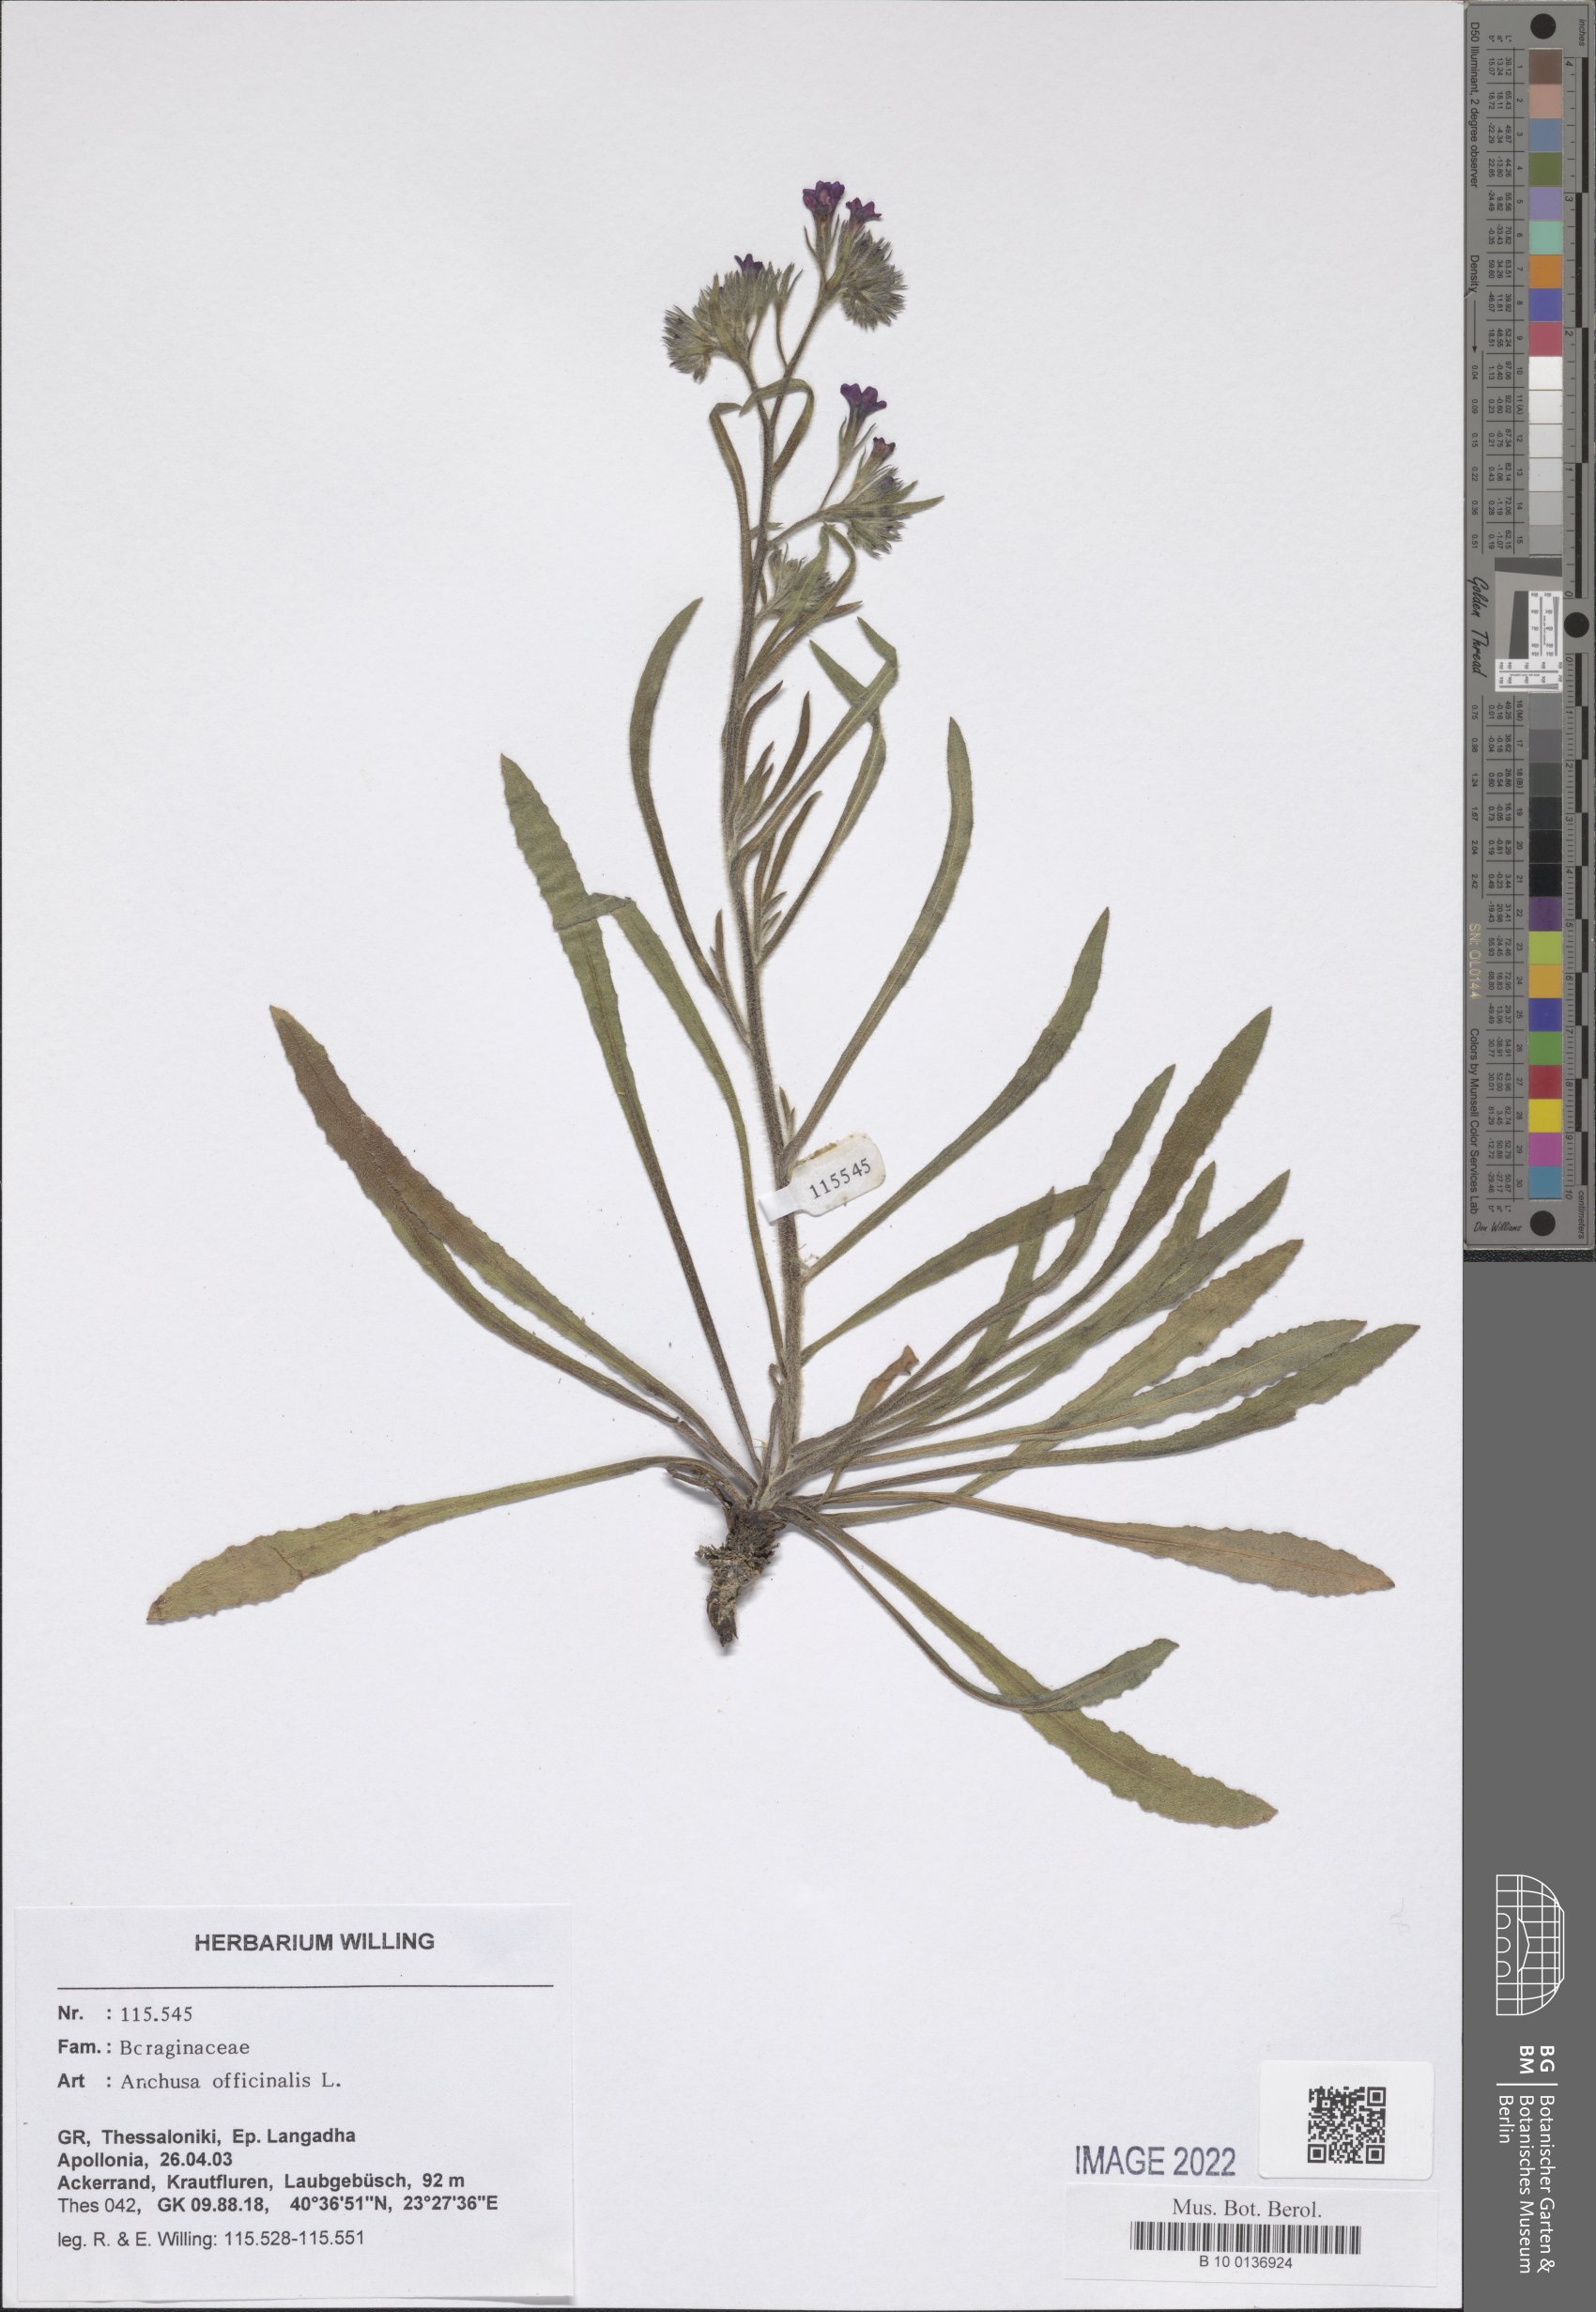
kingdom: Plantae
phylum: Tracheophyta
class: Magnoliopsida
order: Boraginales
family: Boraginaceae
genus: Anchusa
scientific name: Anchusa officinalis
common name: Alkanet
